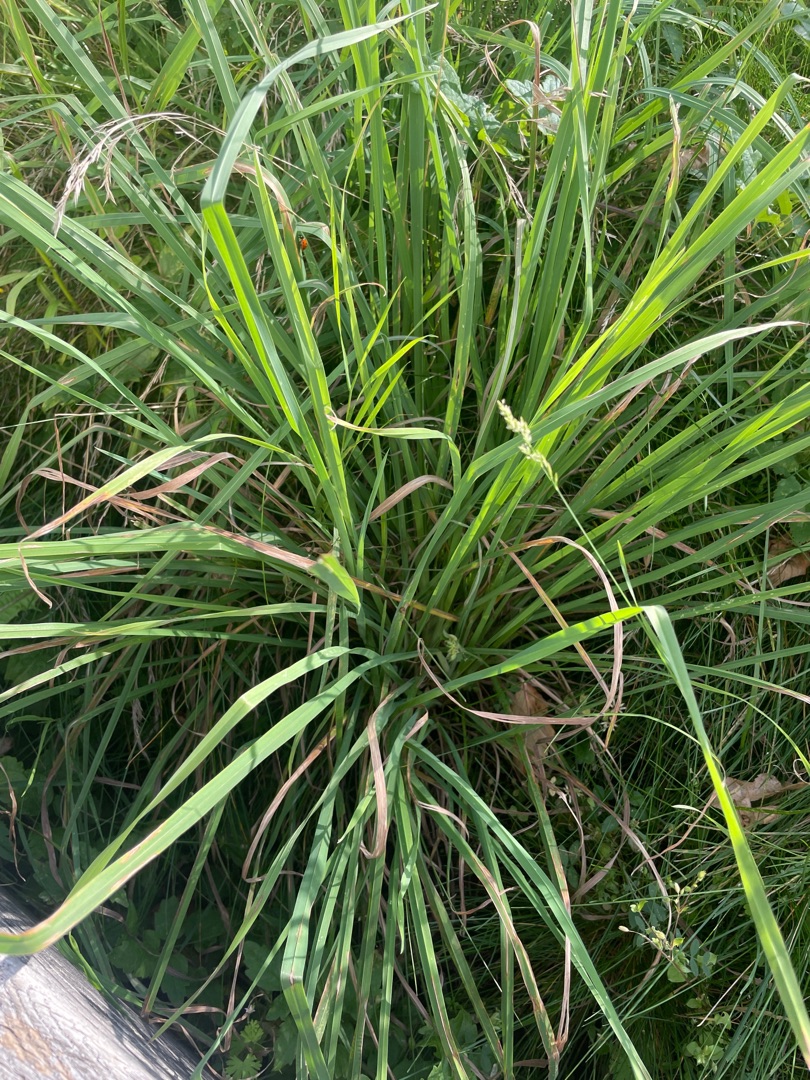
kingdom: Plantae
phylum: Tracheophyta
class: Liliopsida
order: Poales
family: Poaceae
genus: Dactylis
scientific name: Dactylis glomerata
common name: Almindelig hundegræs
